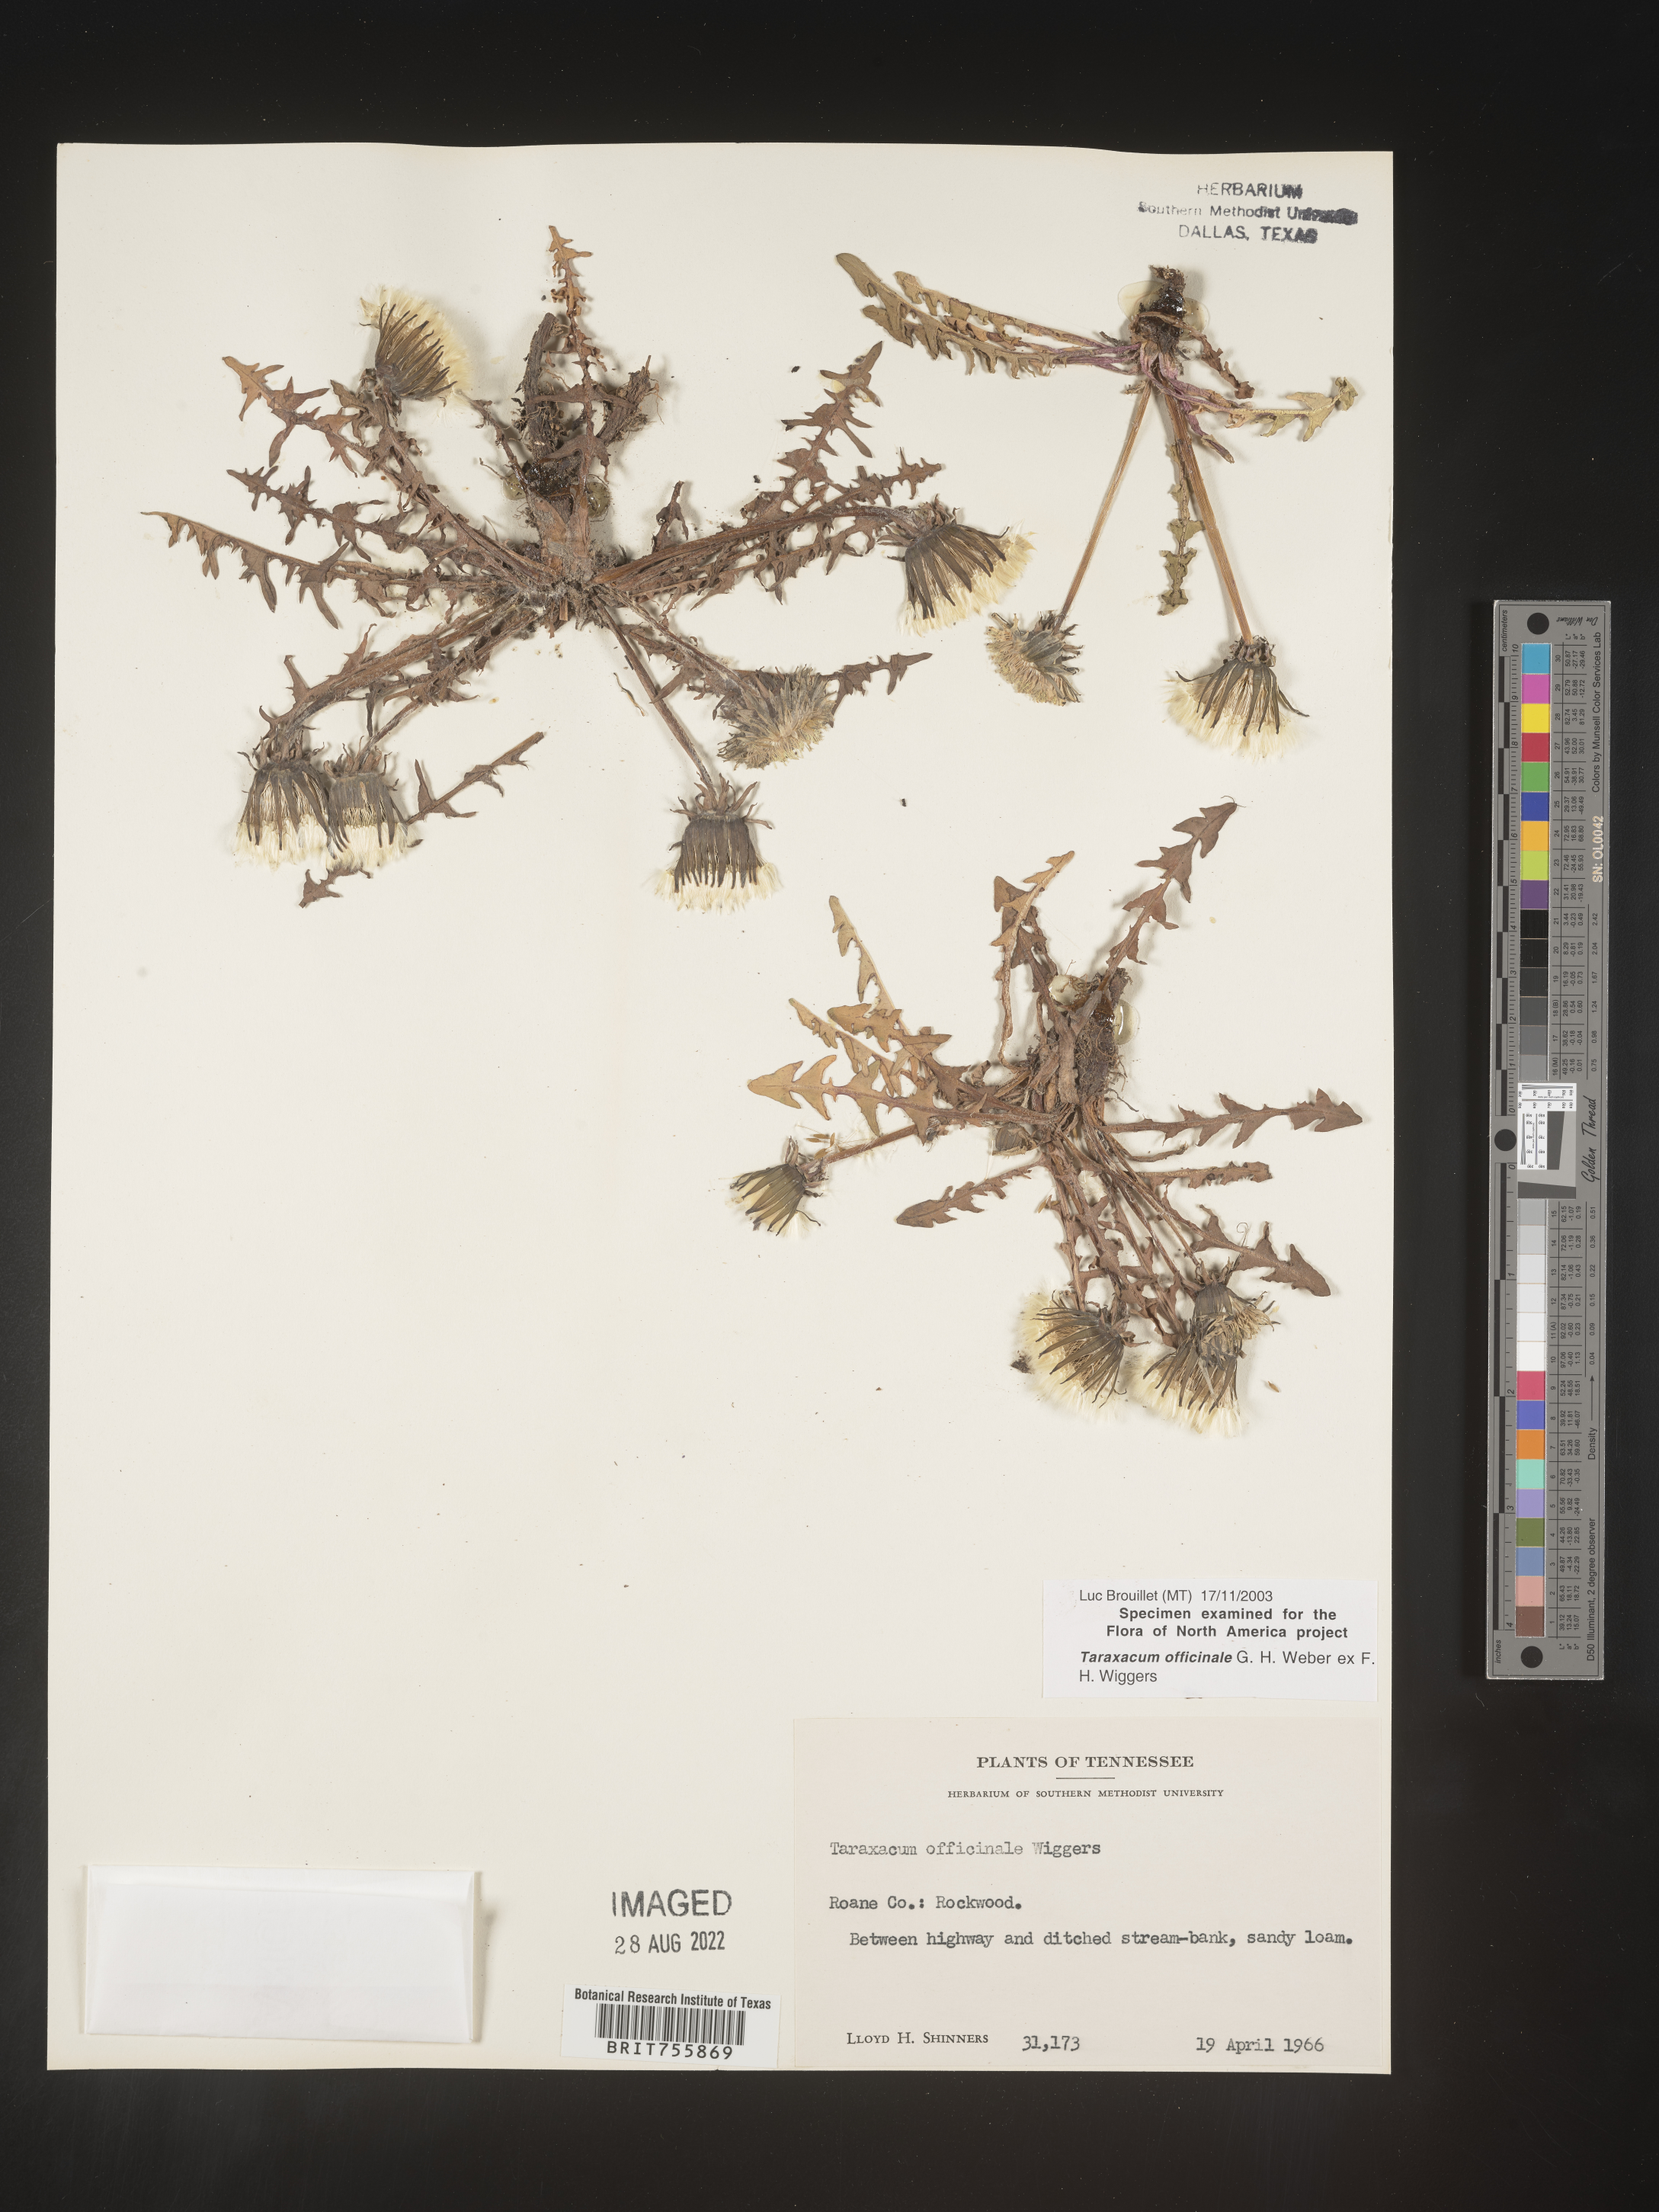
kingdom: Plantae
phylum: Tracheophyta
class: Magnoliopsida
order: Asterales
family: Asteraceae
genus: Taraxacum
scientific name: Taraxacum officinale
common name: Common dandelion
